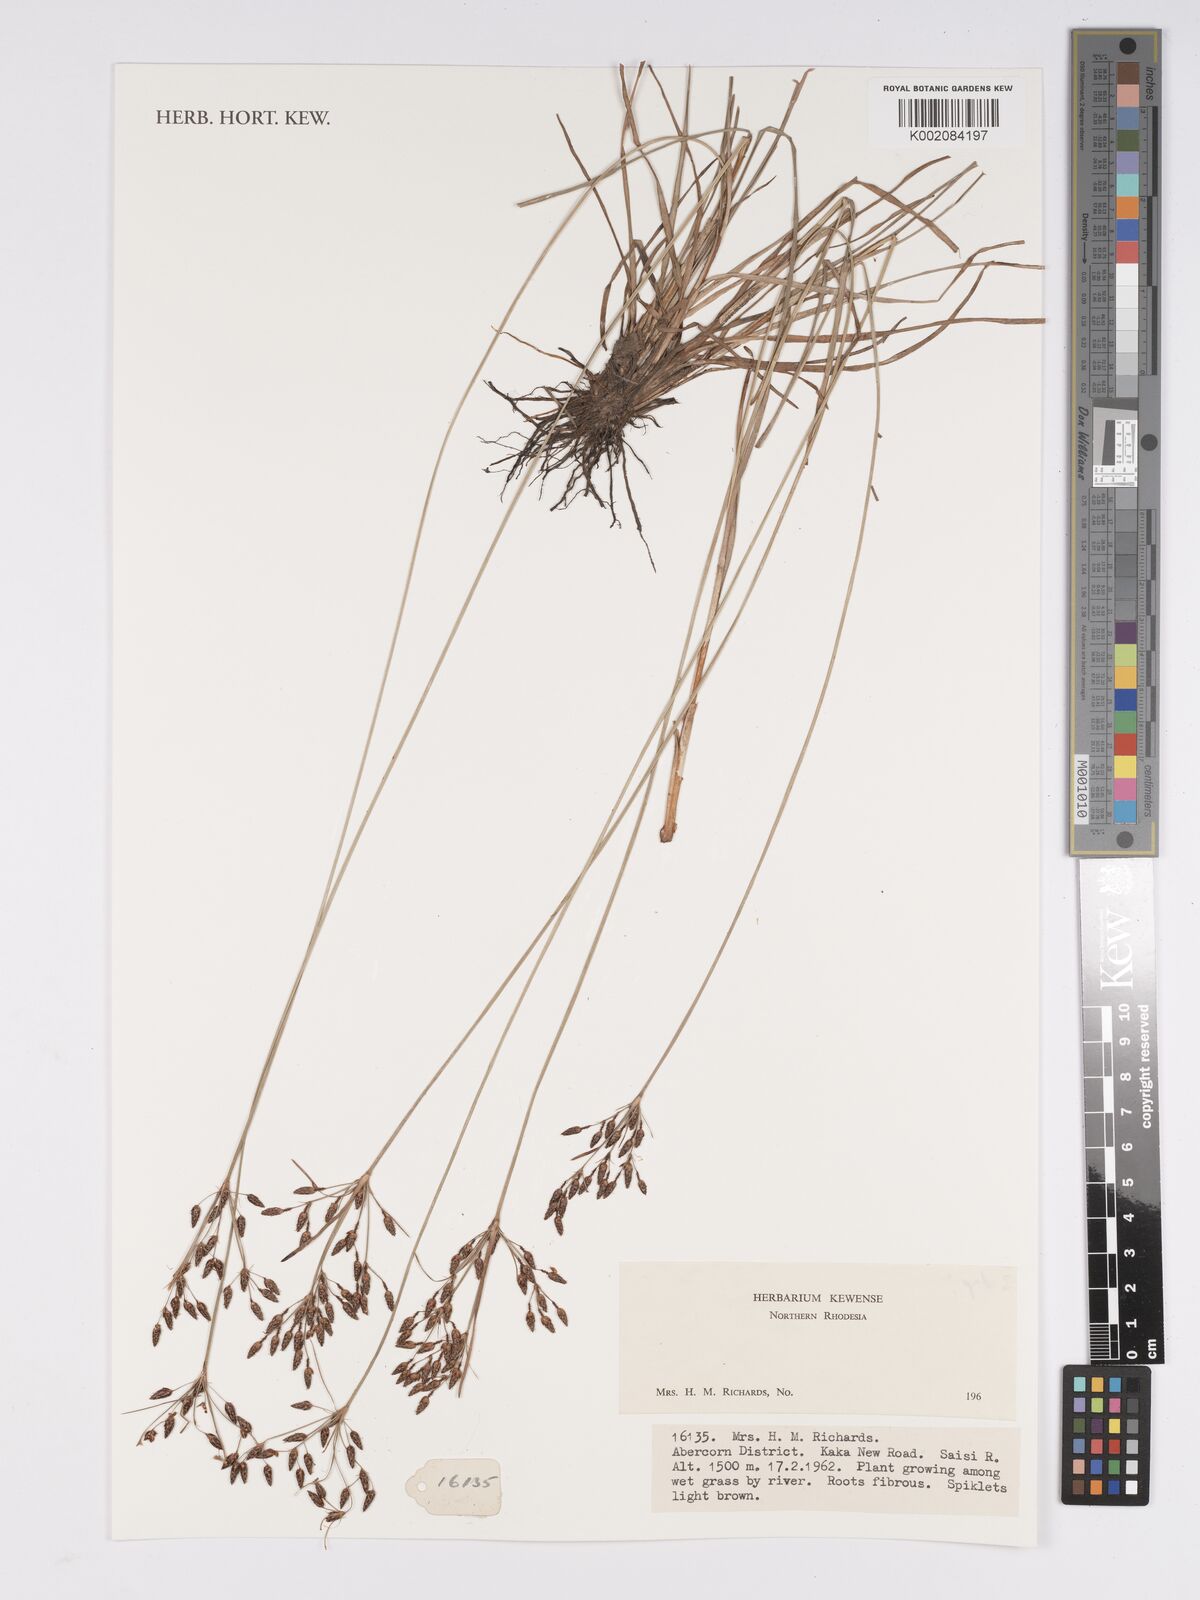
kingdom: Plantae
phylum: Tracheophyta
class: Liliopsida
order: Poales
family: Cyperaceae
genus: Bulbostylis
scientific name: Bulbostylis
